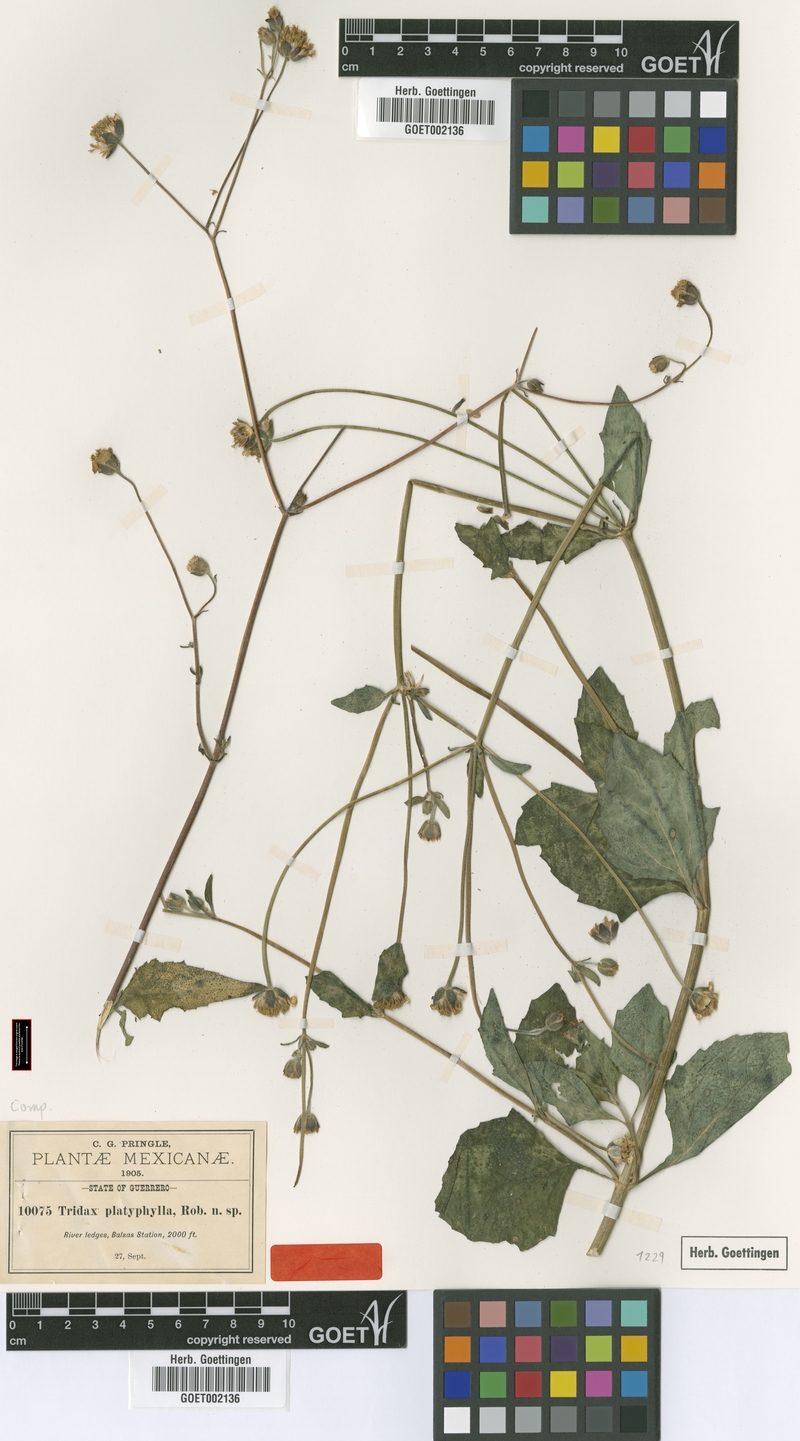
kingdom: Plantae
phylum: Tracheophyta
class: Magnoliopsida
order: Asterales
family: Asteraceae
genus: Tridax
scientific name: Tridax platyphylla
